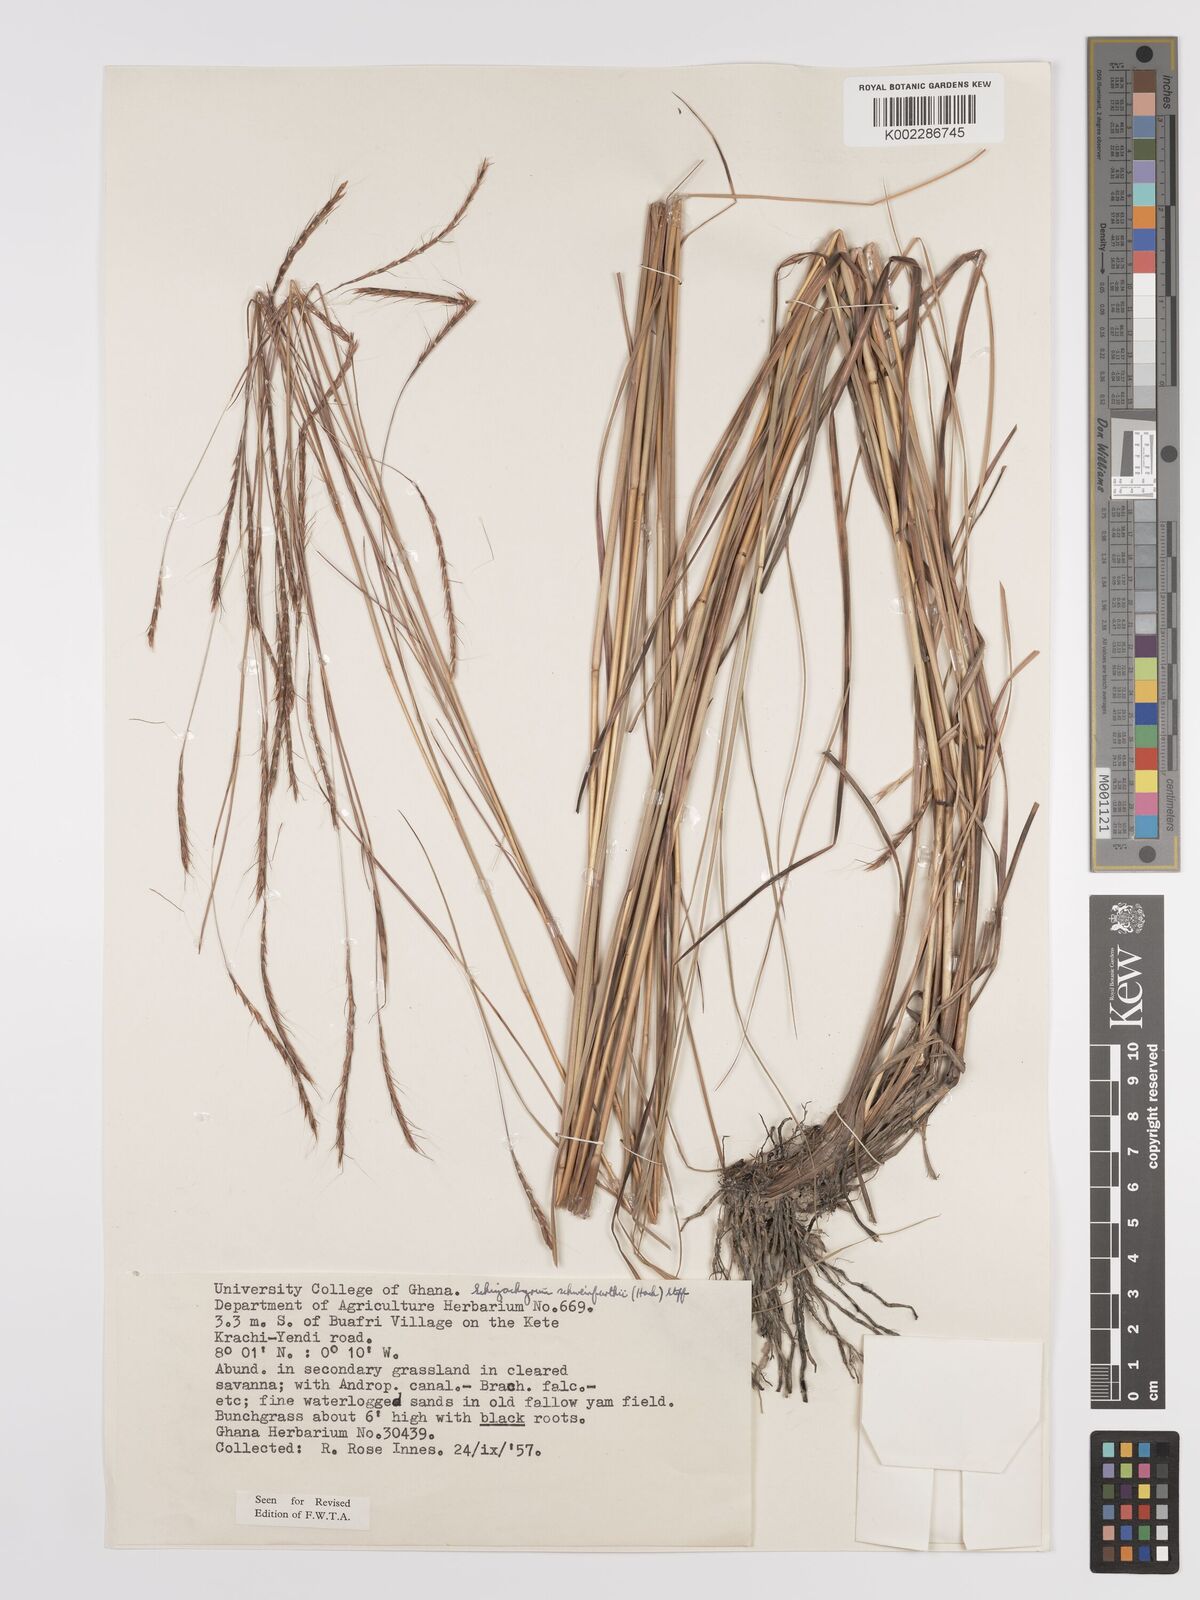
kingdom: Plantae
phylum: Tracheophyta
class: Liliopsida
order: Poales
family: Poaceae
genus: Andropogon
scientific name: Andropogon schweinfurthii
